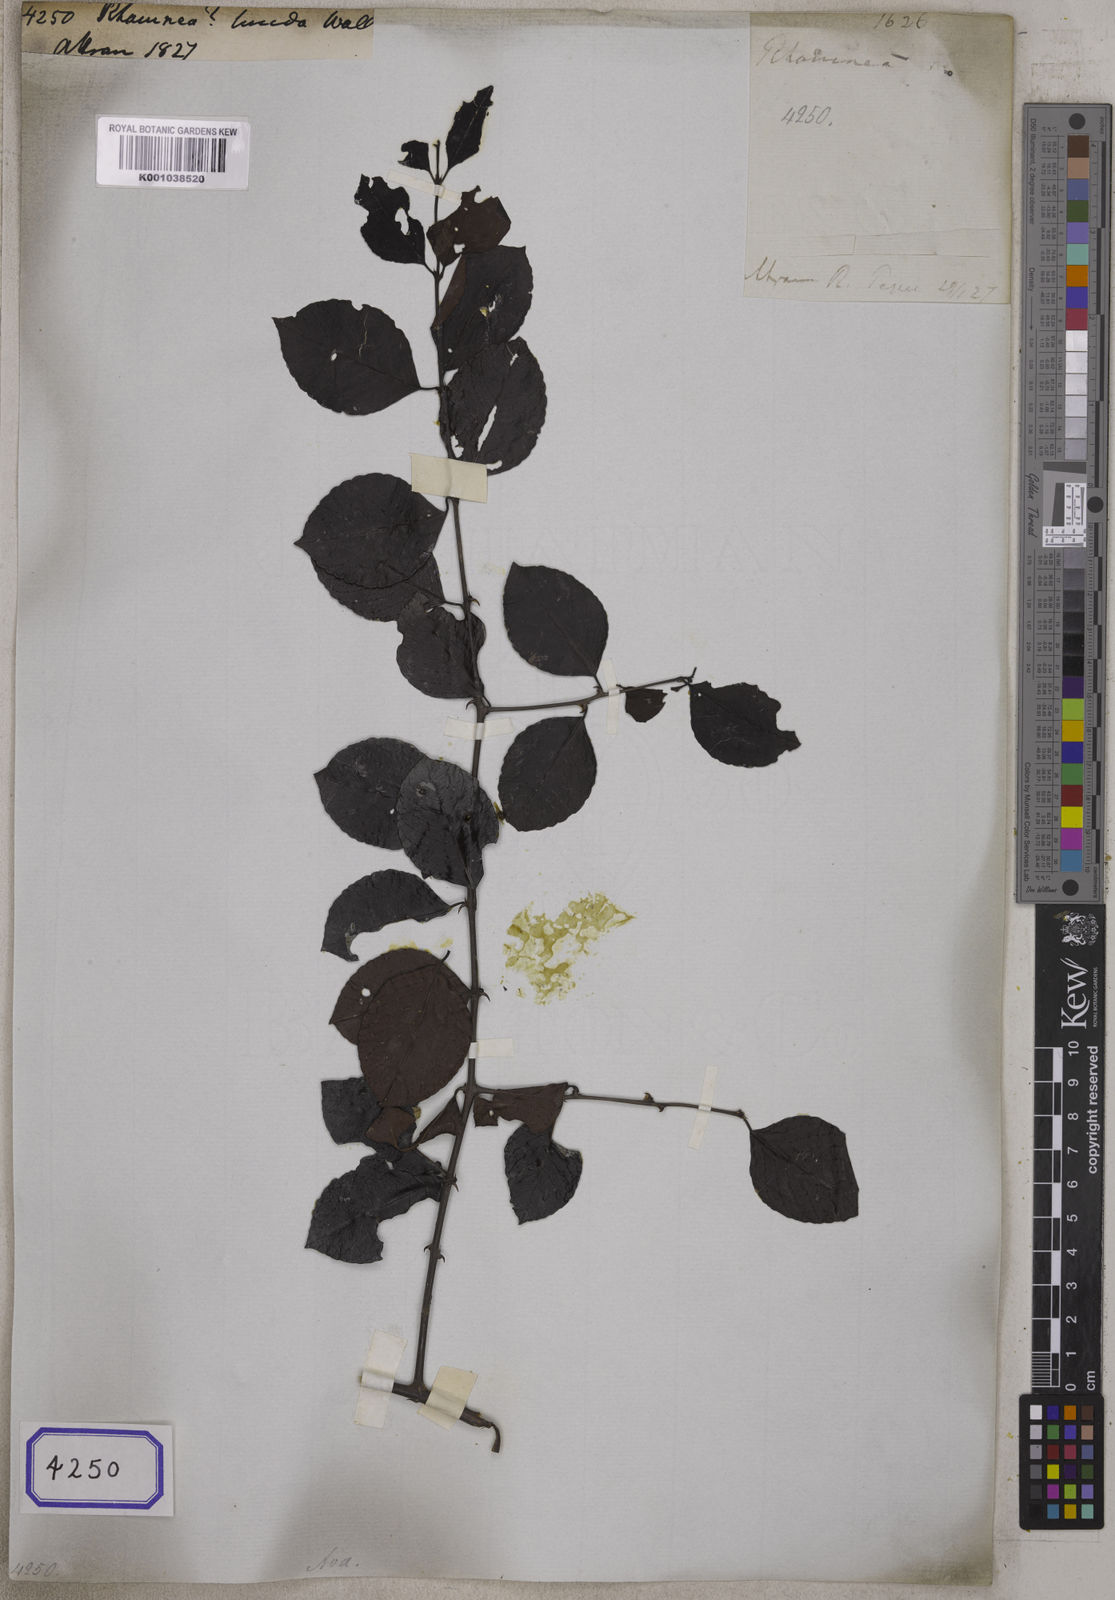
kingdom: Plantae
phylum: Tracheophyta
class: Magnoliopsida
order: Rosales
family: Rhamnaceae
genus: Rhamnus
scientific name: Rhamnus
